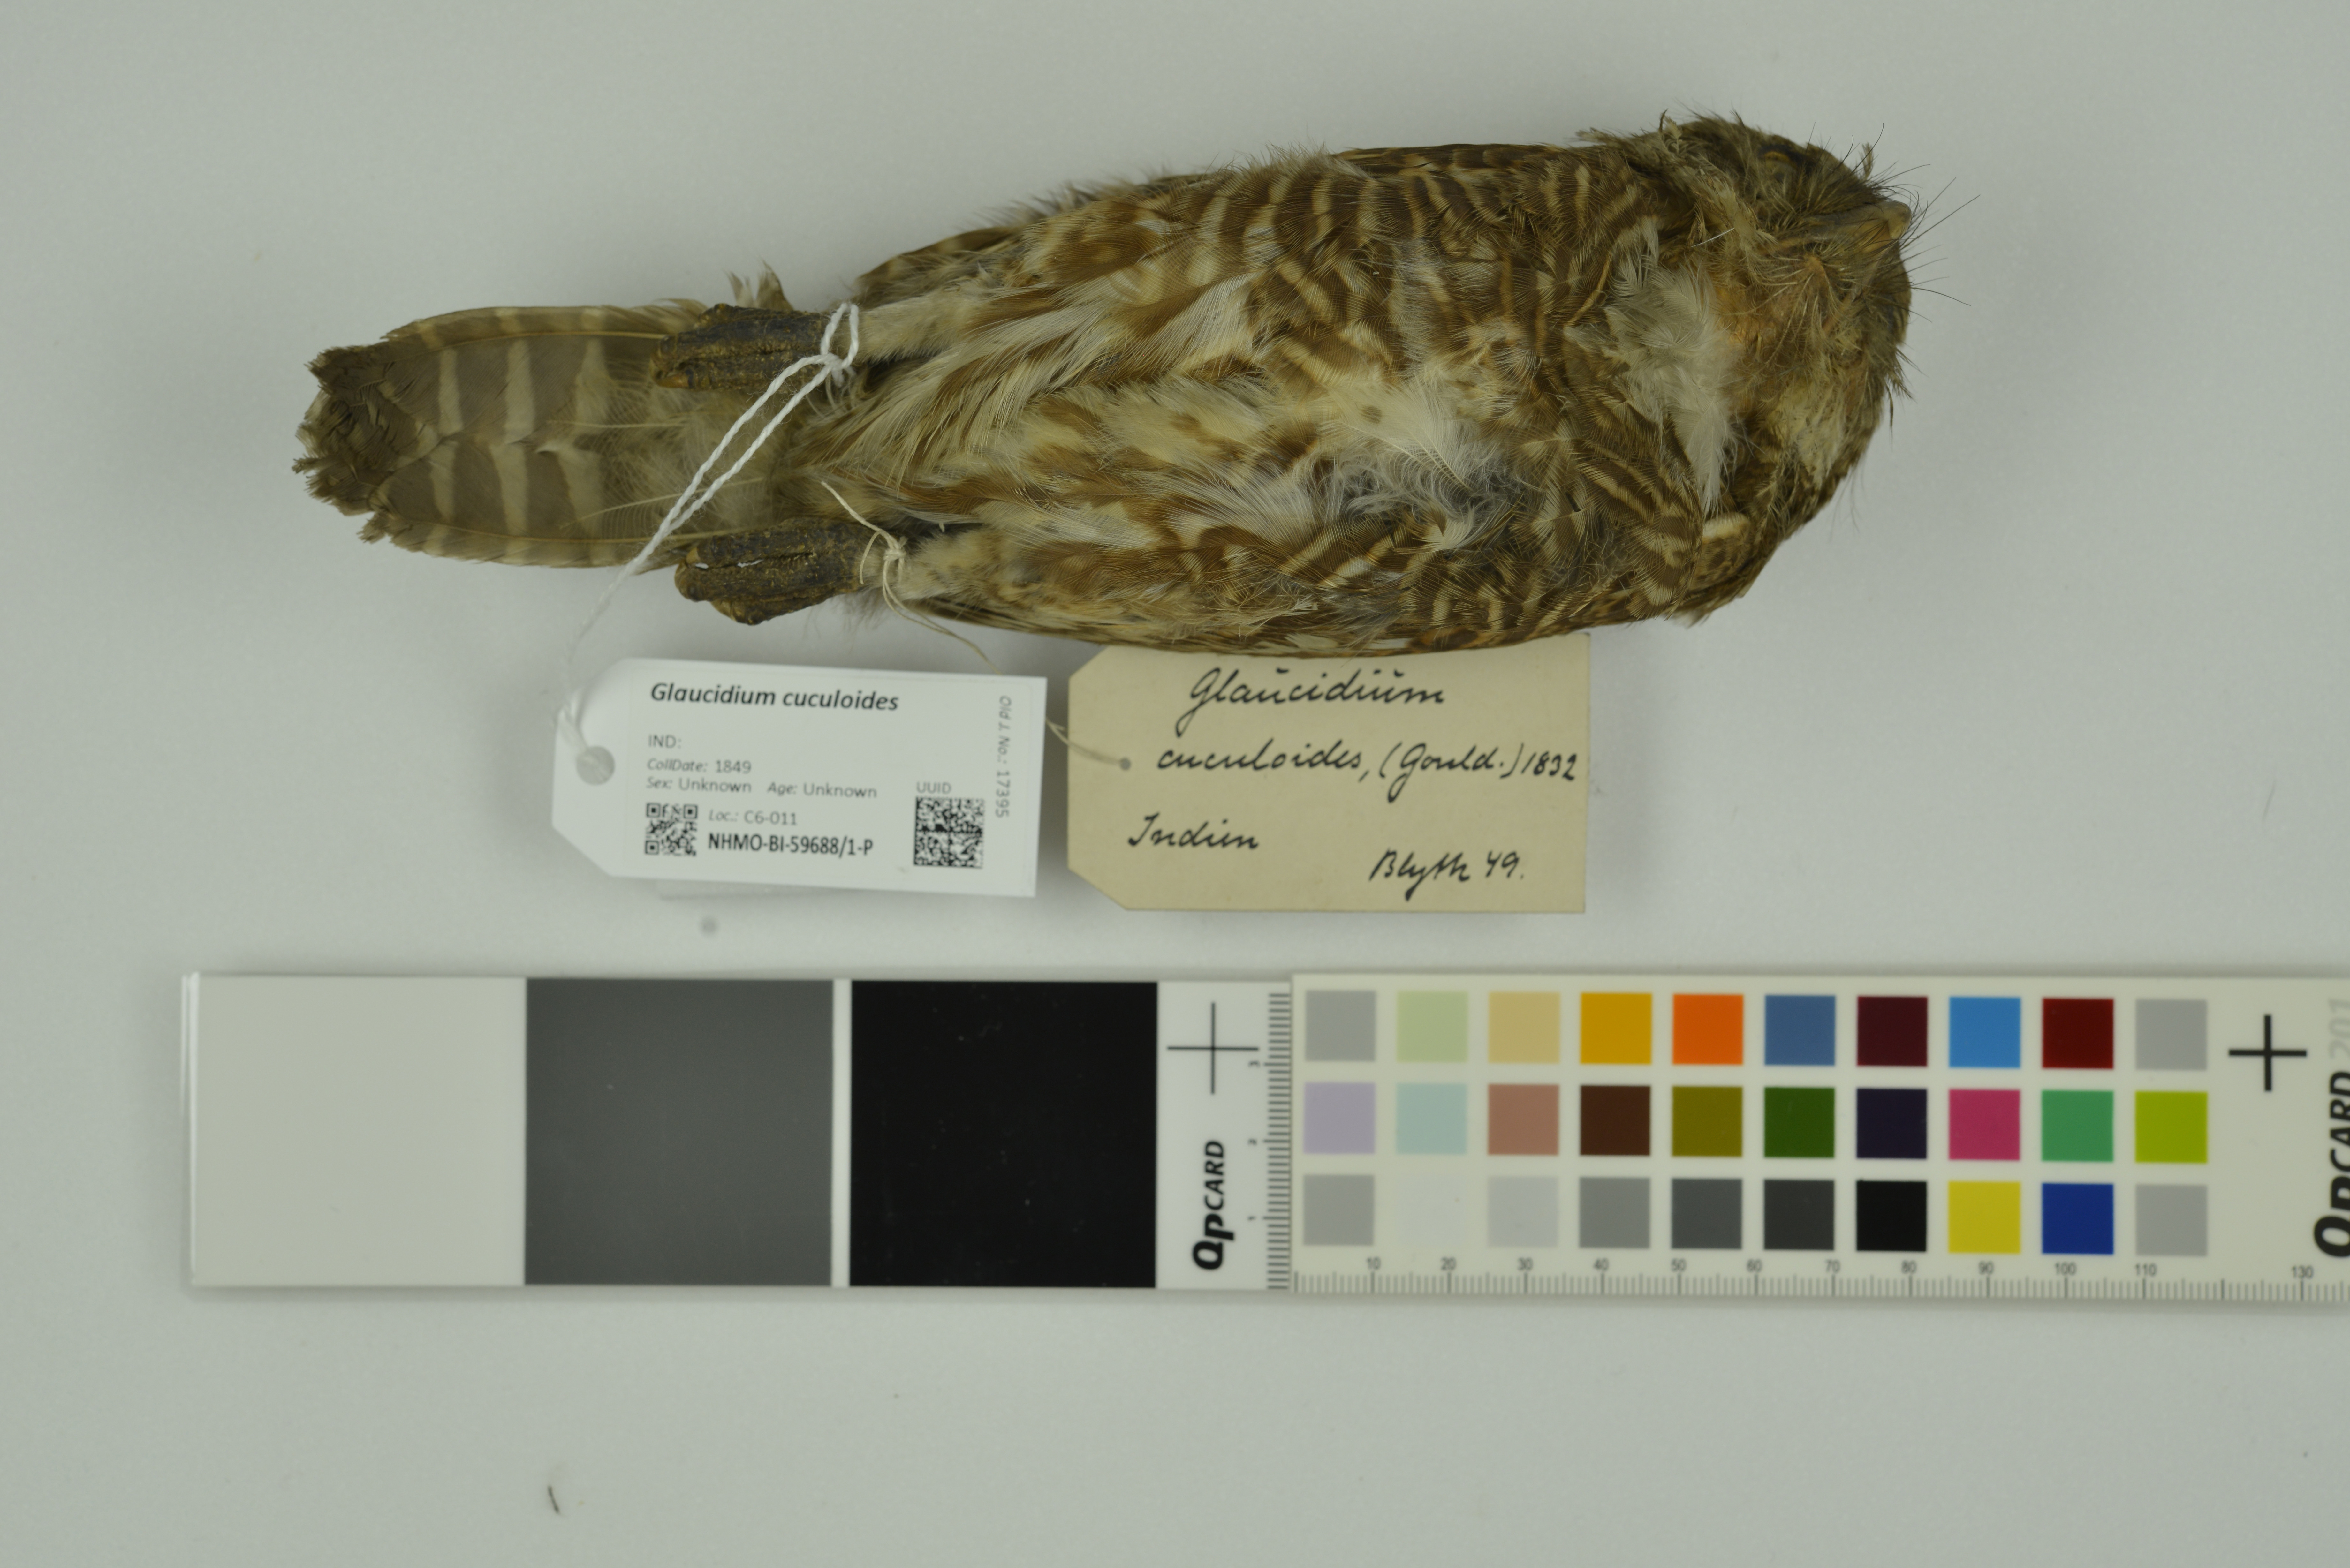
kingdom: Animalia
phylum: Chordata
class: Aves
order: Strigiformes
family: Strigidae
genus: Glaucidium
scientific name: Glaucidium cuculoides
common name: Asian barred owlet
